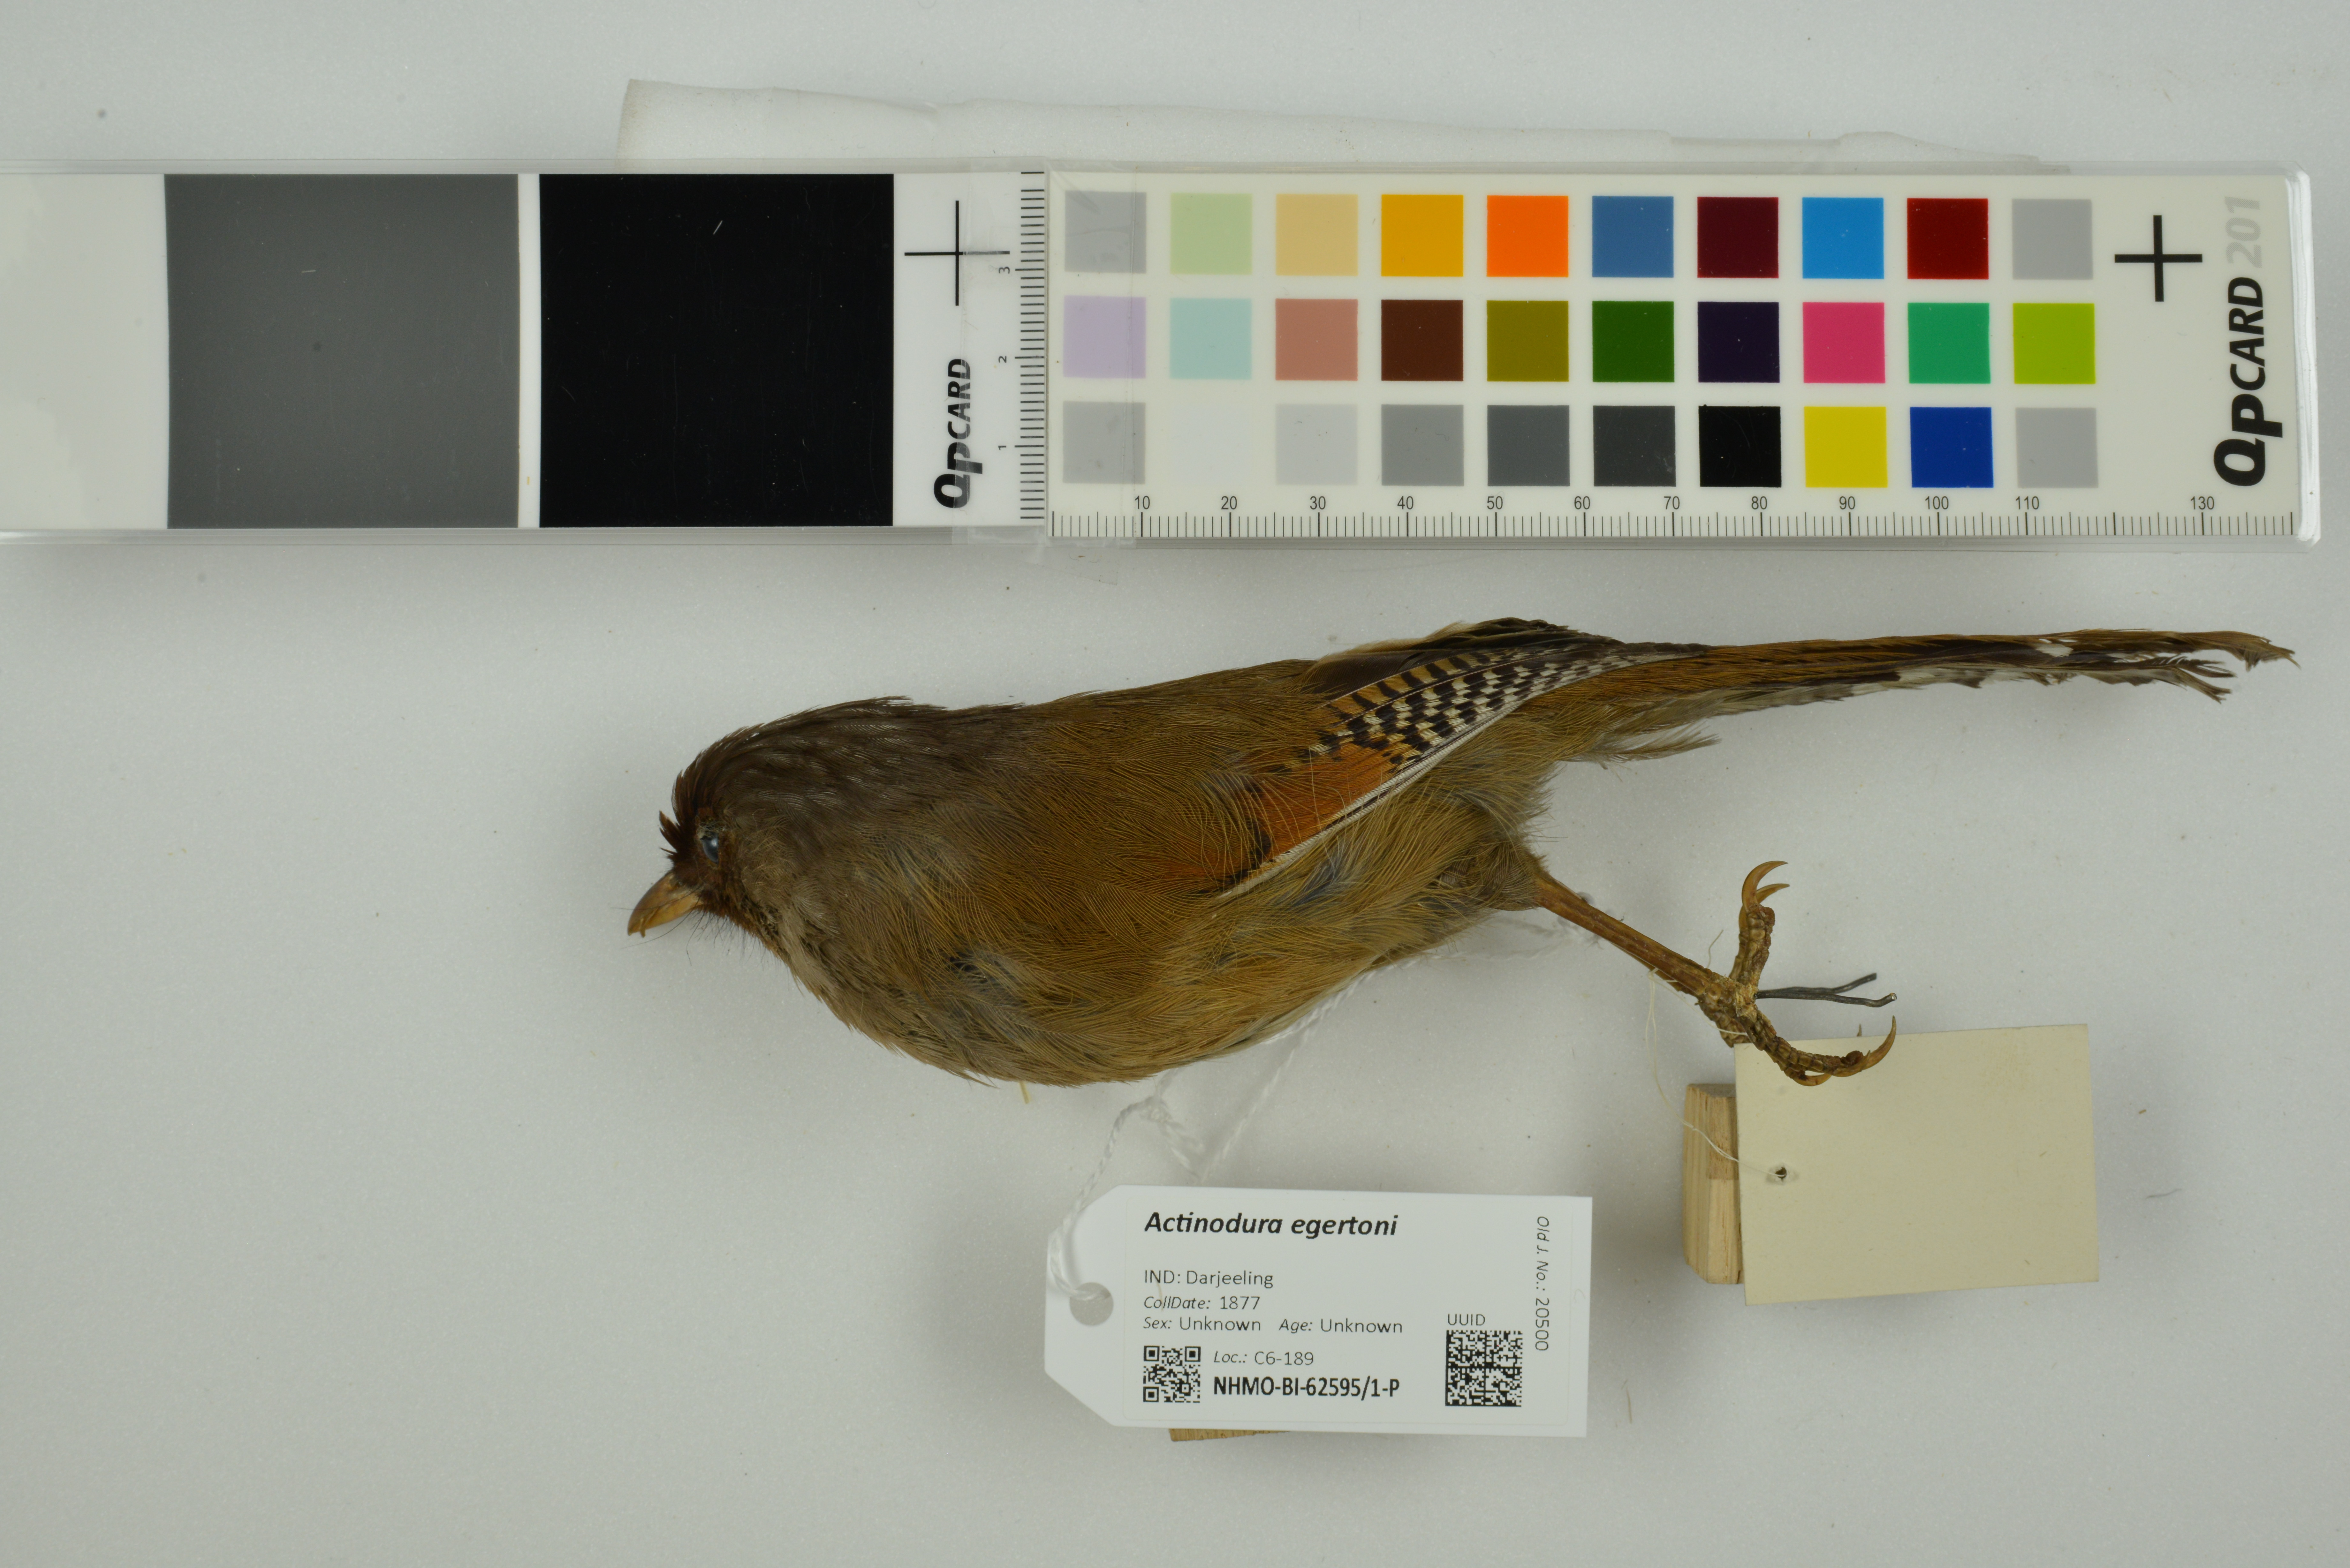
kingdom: Animalia
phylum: Chordata
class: Aves
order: Passeriformes
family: Leiothrichidae
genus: Actinodura
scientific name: Actinodura egertoni
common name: Rusty-fronted barwing
